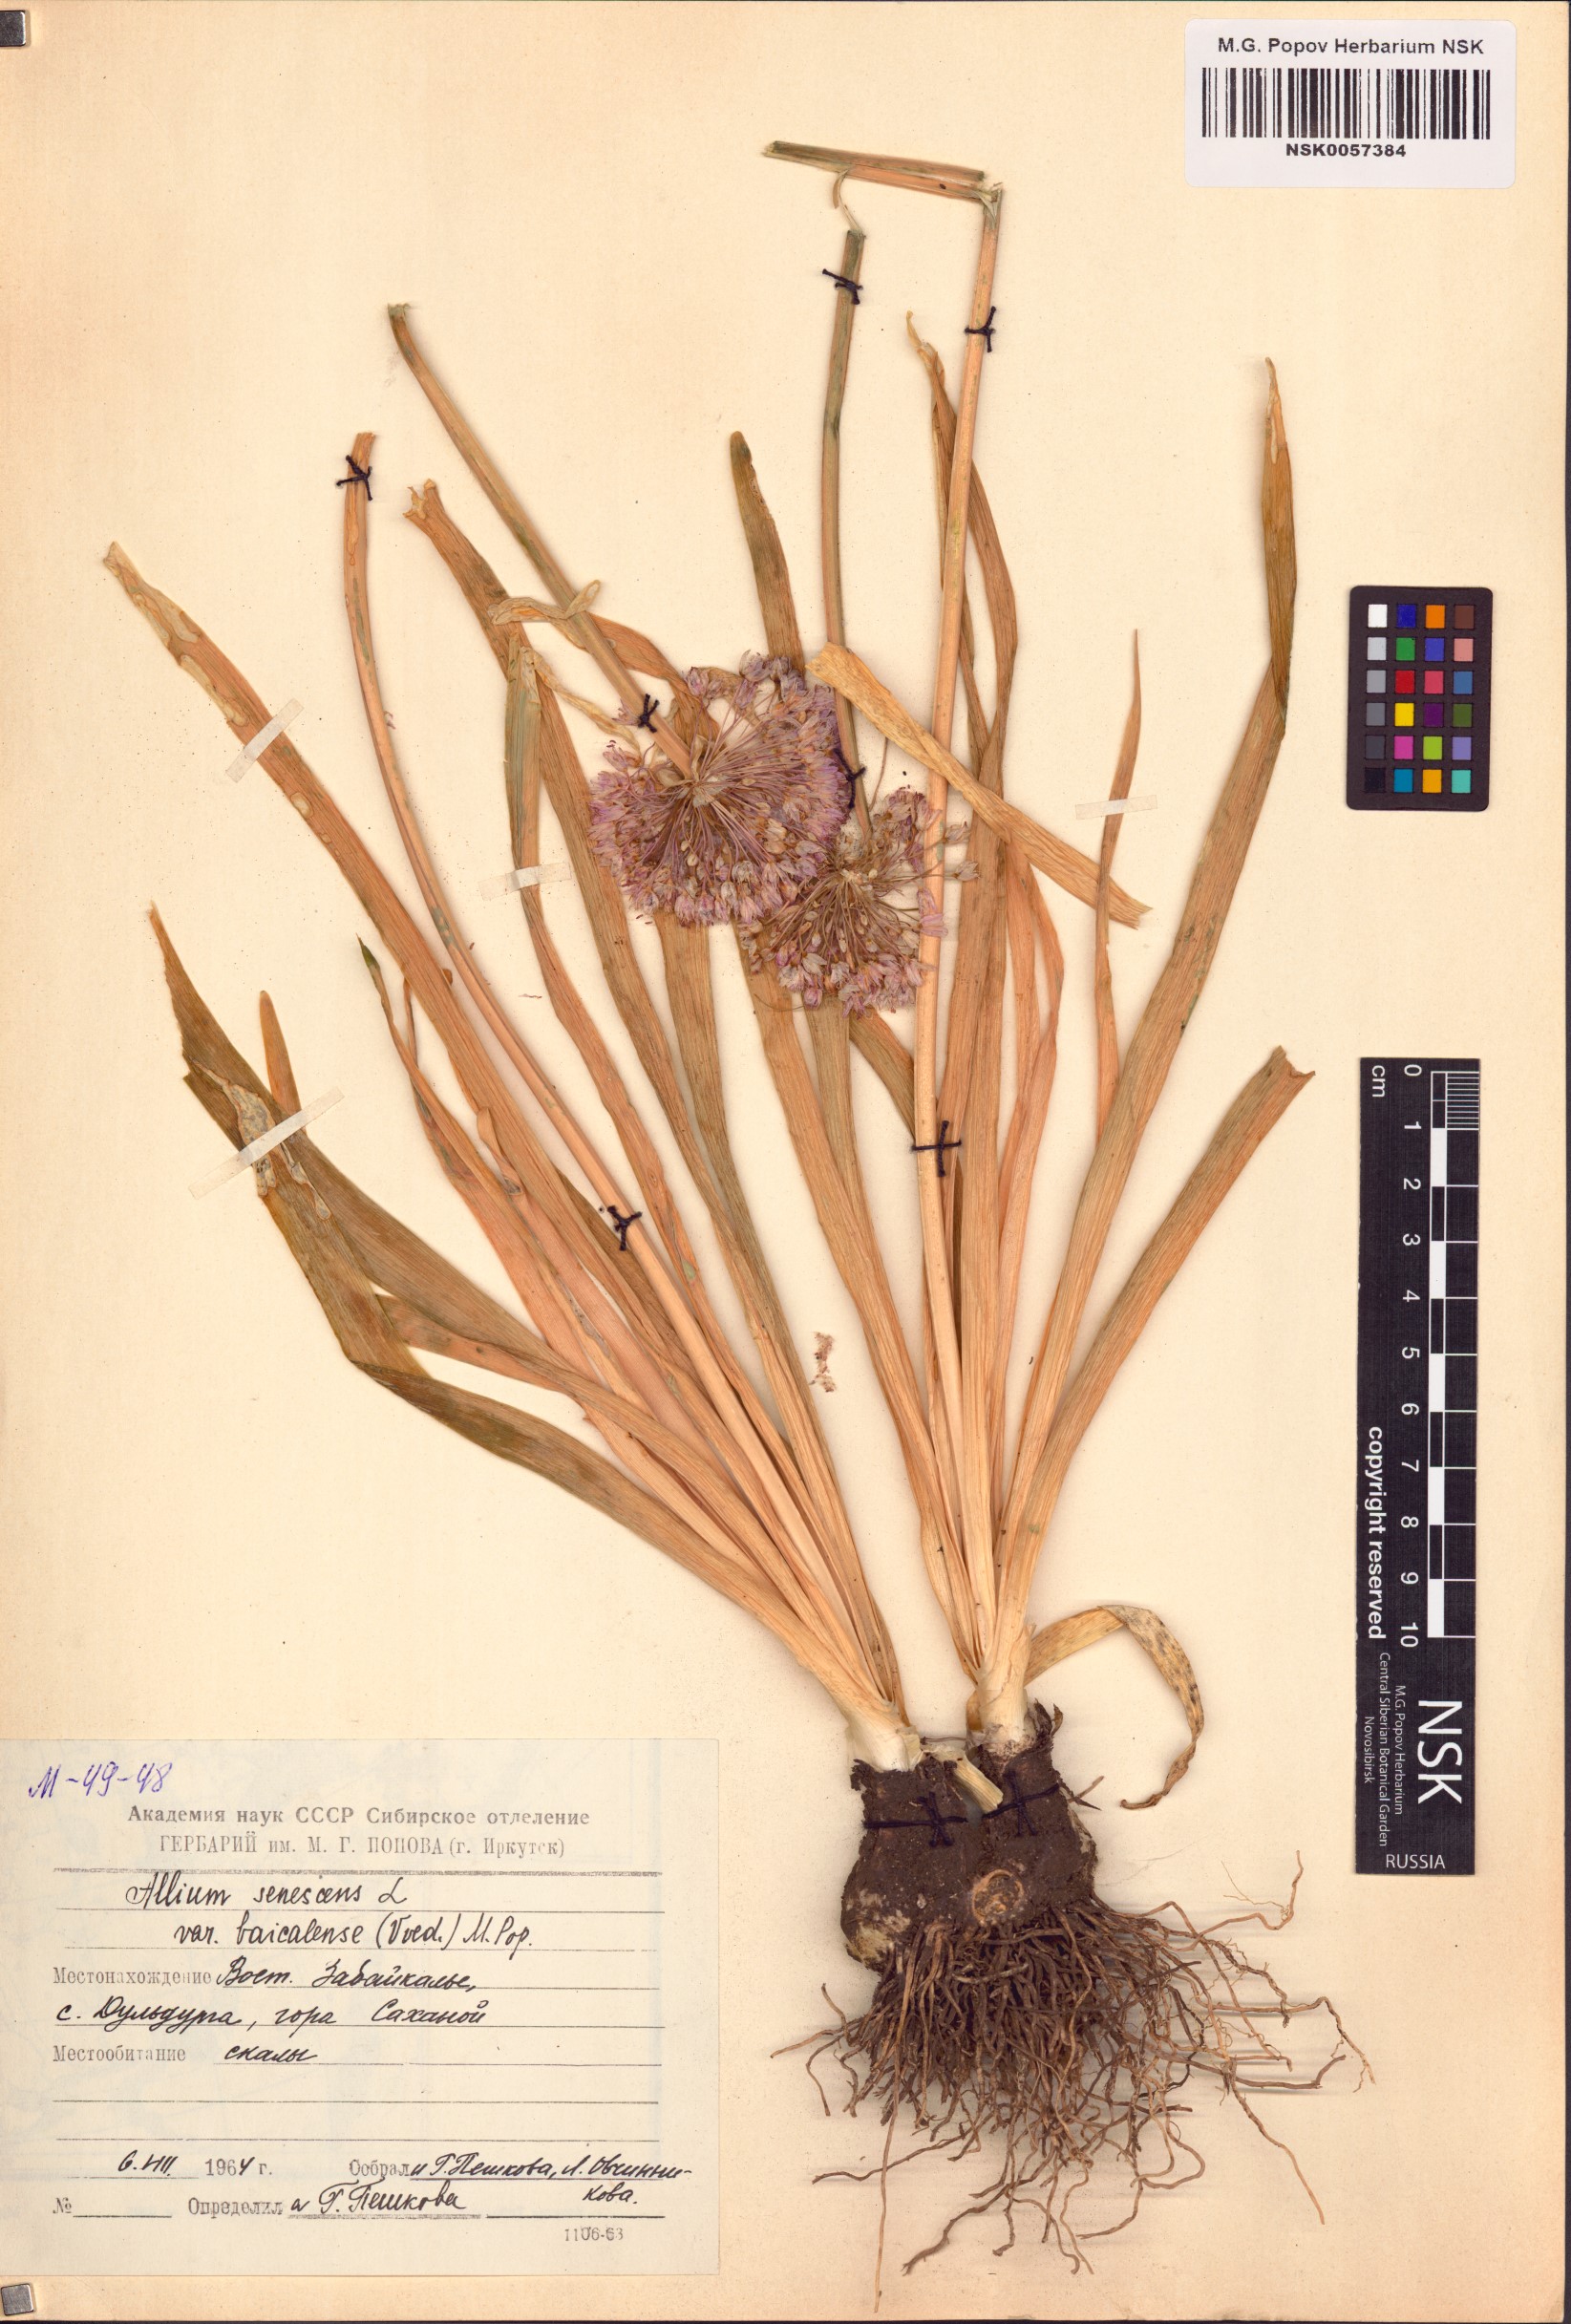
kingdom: Plantae
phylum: Tracheophyta
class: Liliopsida
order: Asparagales
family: Amaryllidaceae
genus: Allium
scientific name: Allium senescens
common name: German garlic
